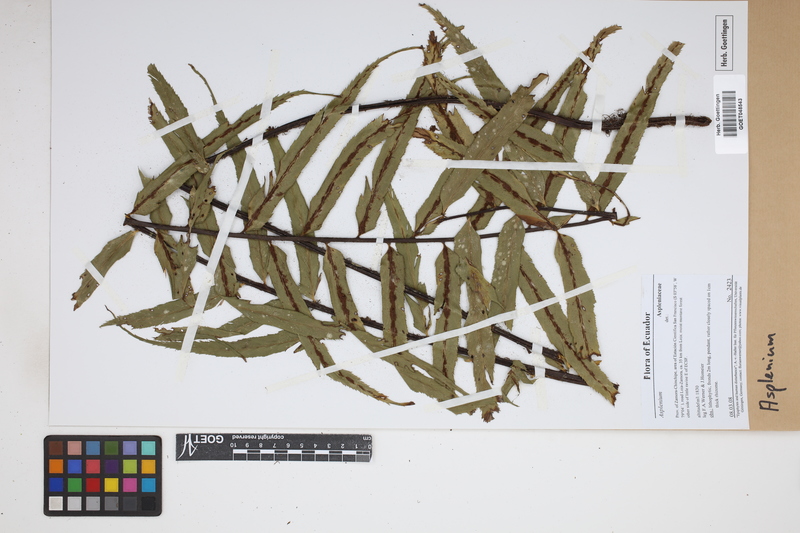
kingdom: Plantae
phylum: Tracheophyta
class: Polypodiopsida
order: Polypodiales
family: Aspleniaceae
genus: Asplenium
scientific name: Asplenium
